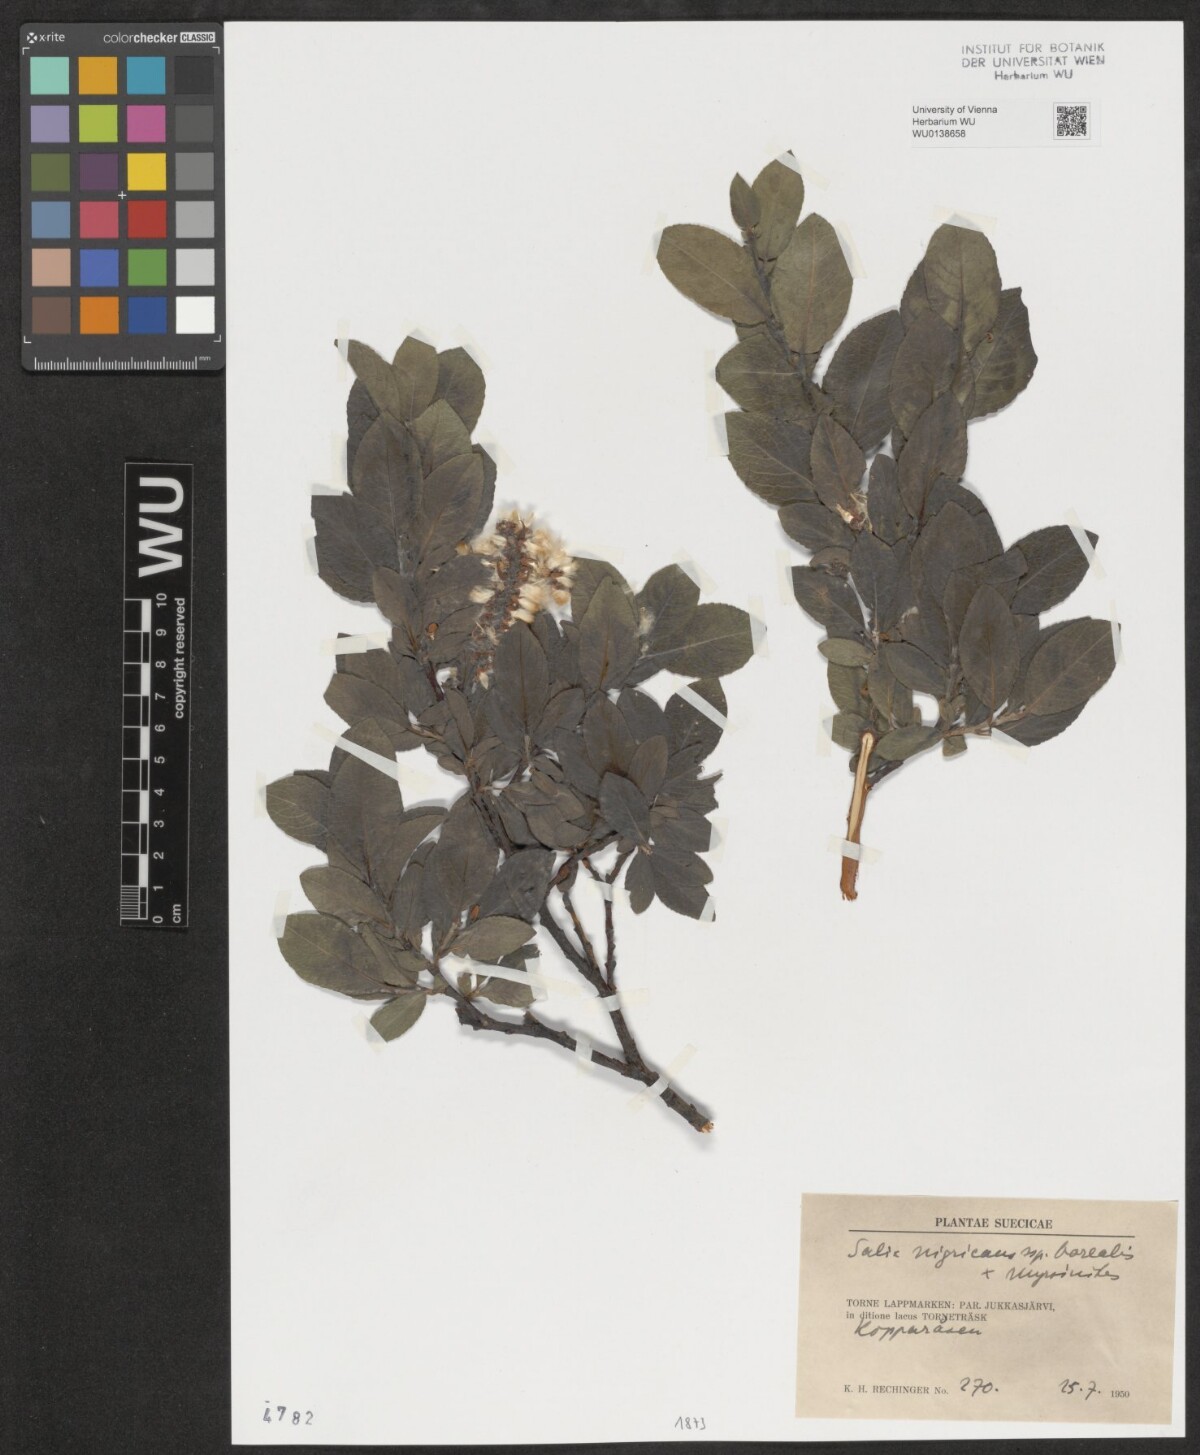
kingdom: Plantae
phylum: Tracheophyta
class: Magnoliopsida
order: Malpighiales
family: Salicaceae
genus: Salix
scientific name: Salix
